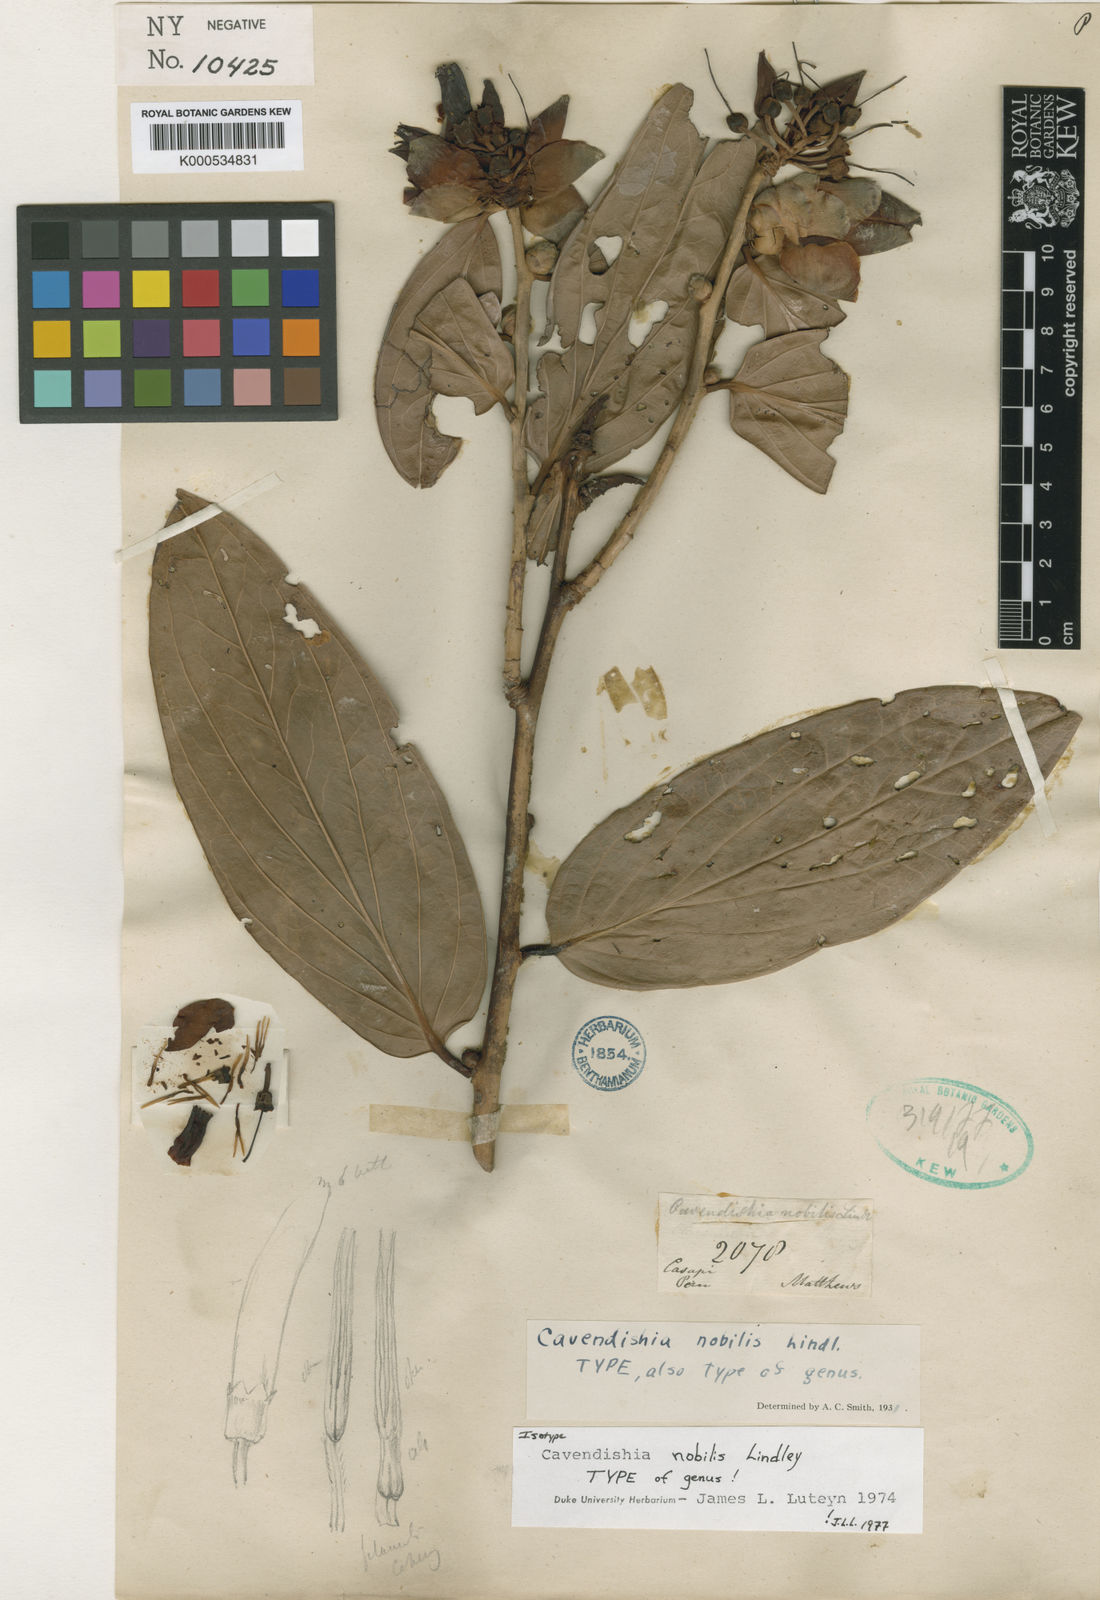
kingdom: Plantae
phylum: Tracheophyta
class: Magnoliopsida
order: Ericales
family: Ericaceae
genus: Cavendishia
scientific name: Cavendishia nobilis
